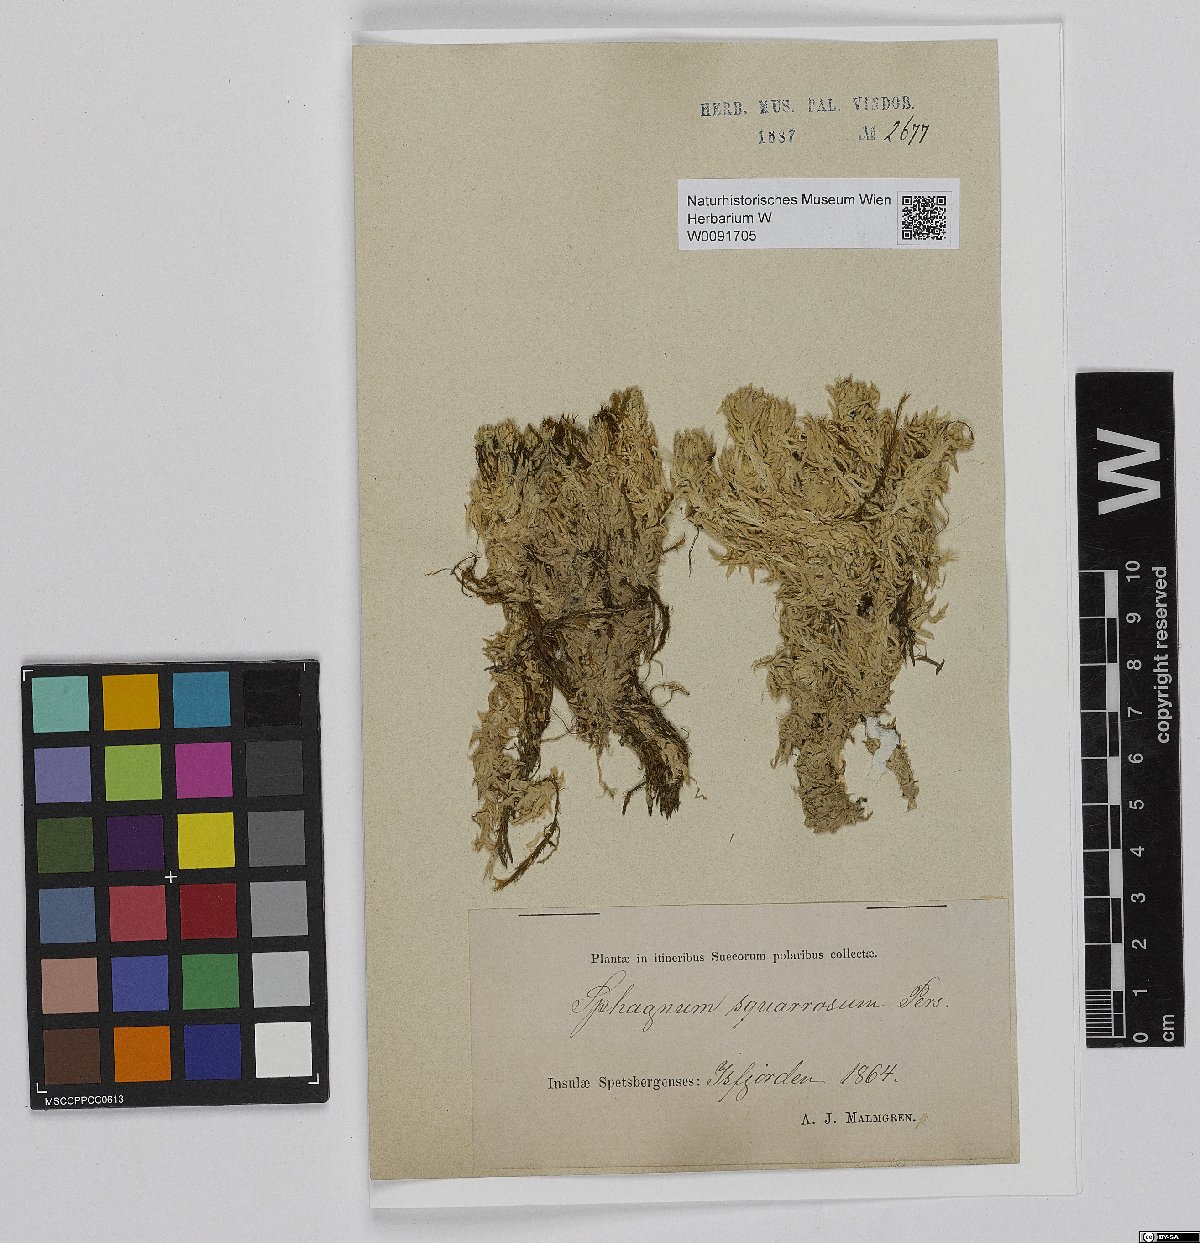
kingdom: Plantae
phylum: Bryophyta
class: Sphagnopsida
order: Sphagnales
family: Sphagnaceae
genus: Sphagnum
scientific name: Sphagnum squarrosum
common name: Shaggy peat moss
